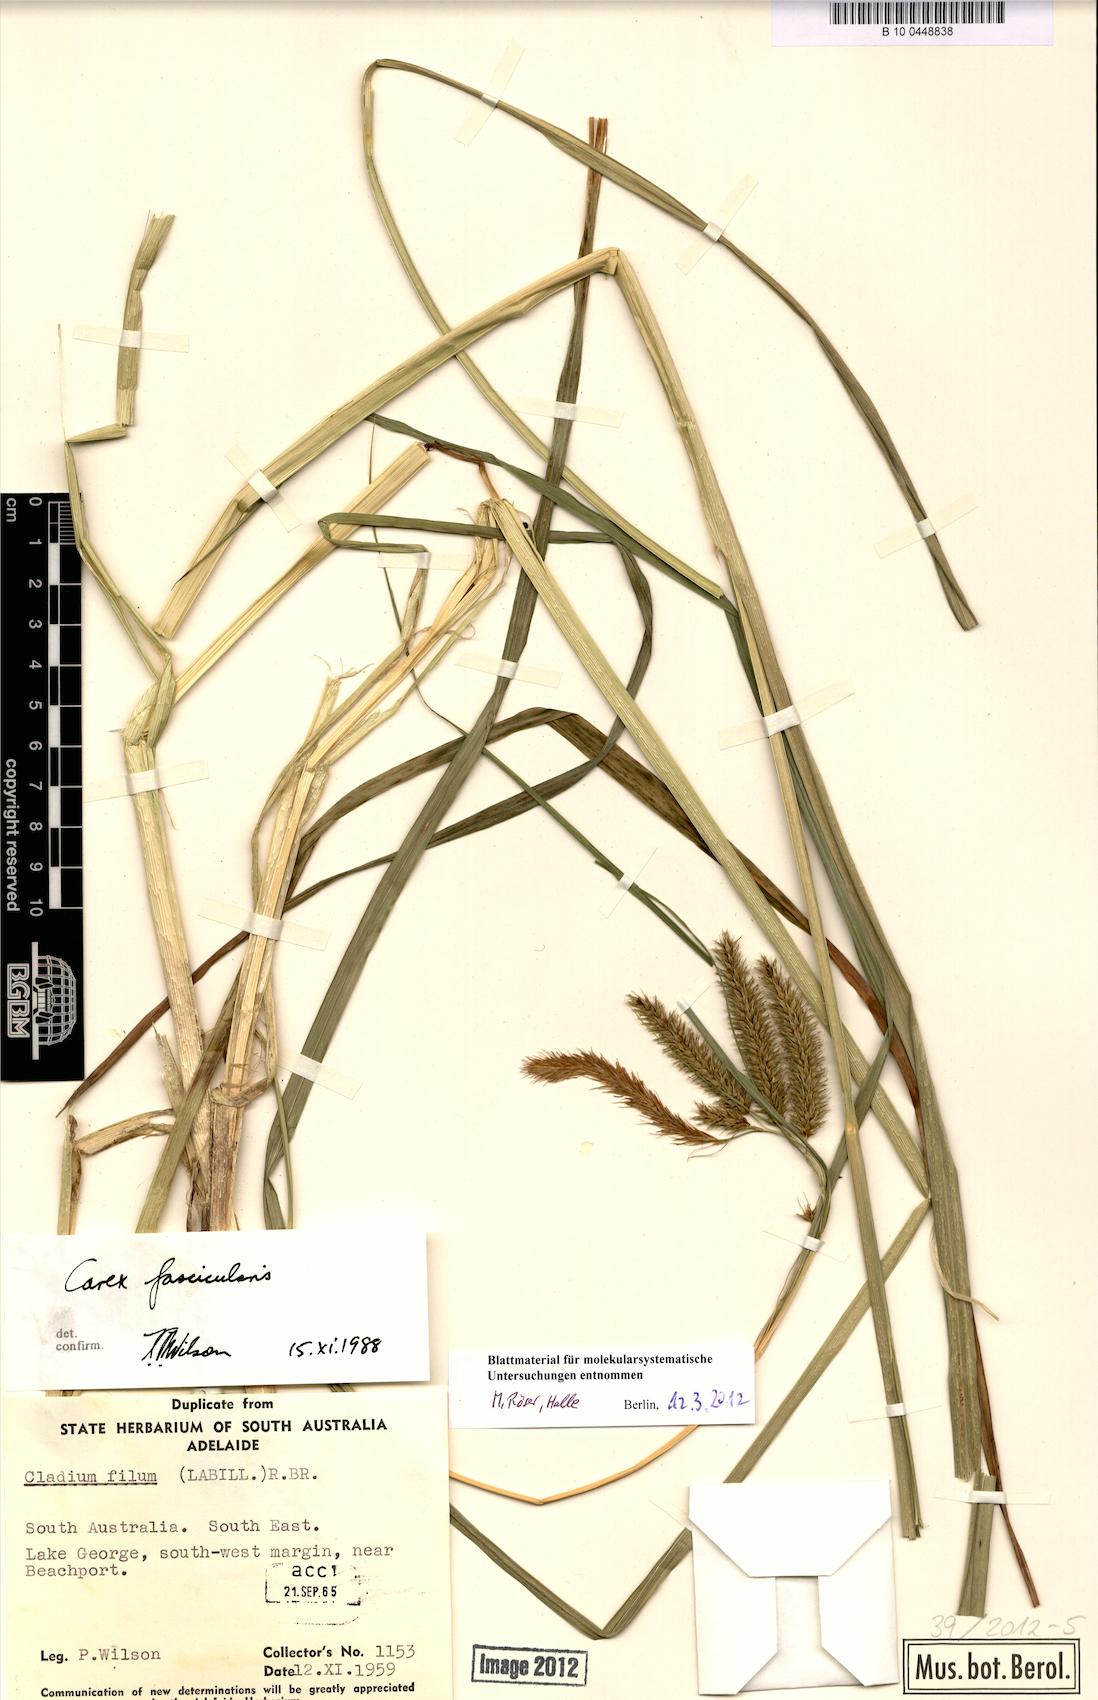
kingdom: Plantae
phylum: Tracheophyta
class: Liliopsida
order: Poales
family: Cyperaceae
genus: Carex
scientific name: Carex fascicularis
